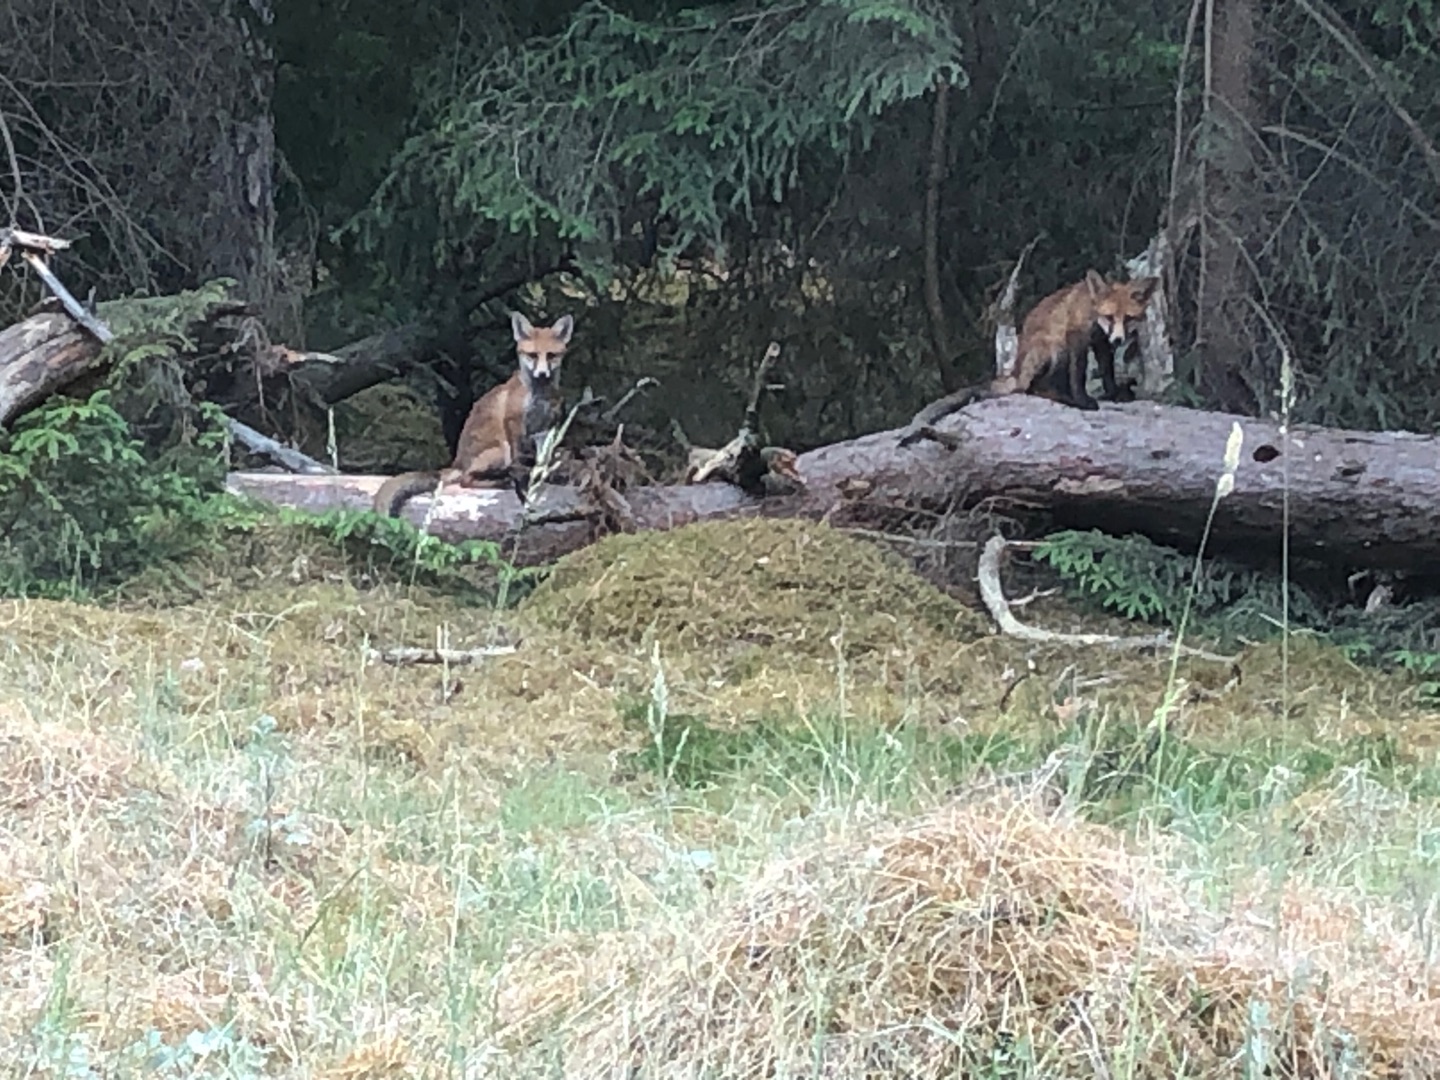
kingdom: Animalia
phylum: Chordata
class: Mammalia
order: Carnivora
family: Canidae
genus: Vulpes
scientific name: Vulpes vulpes
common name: Ræv
